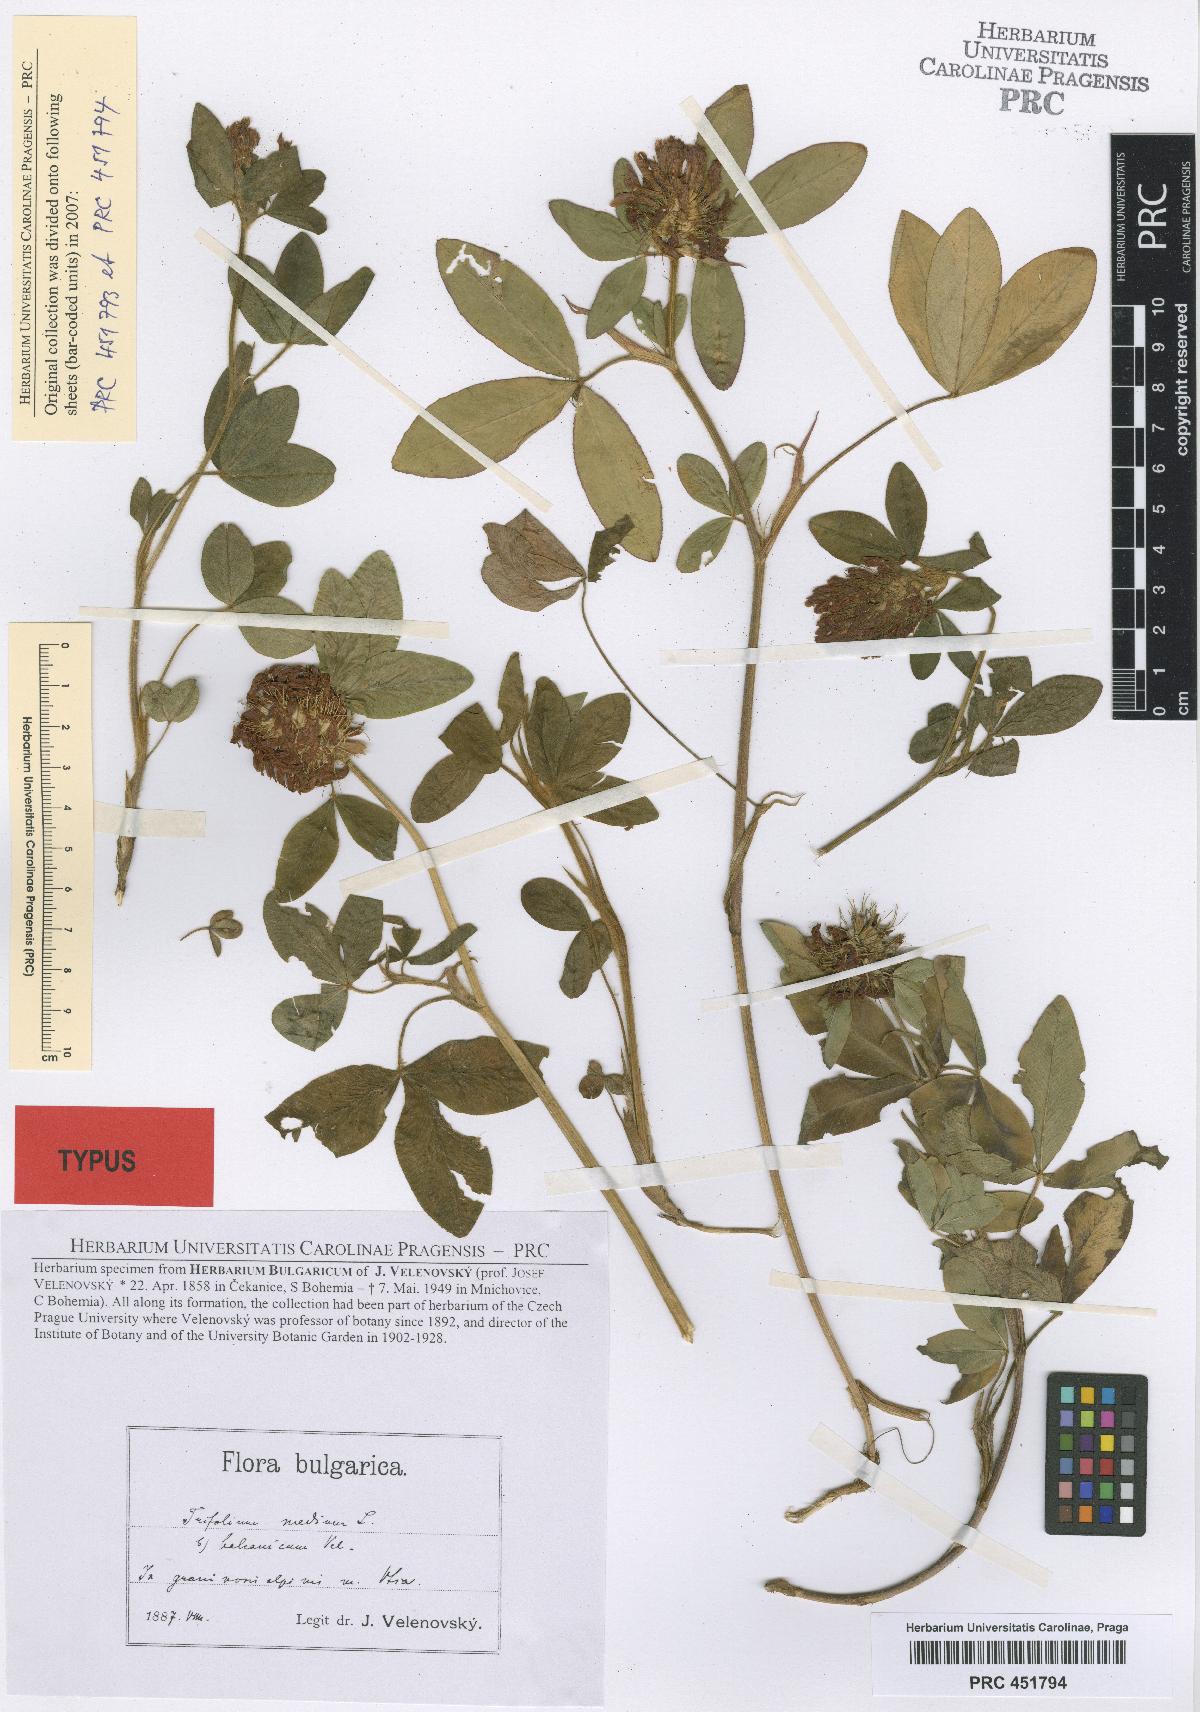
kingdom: Plantae
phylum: Tracheophyta
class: Magnoliopsida
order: Fabales
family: Fabaceae
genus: Trifolium
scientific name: Trifolium pseudomedium
